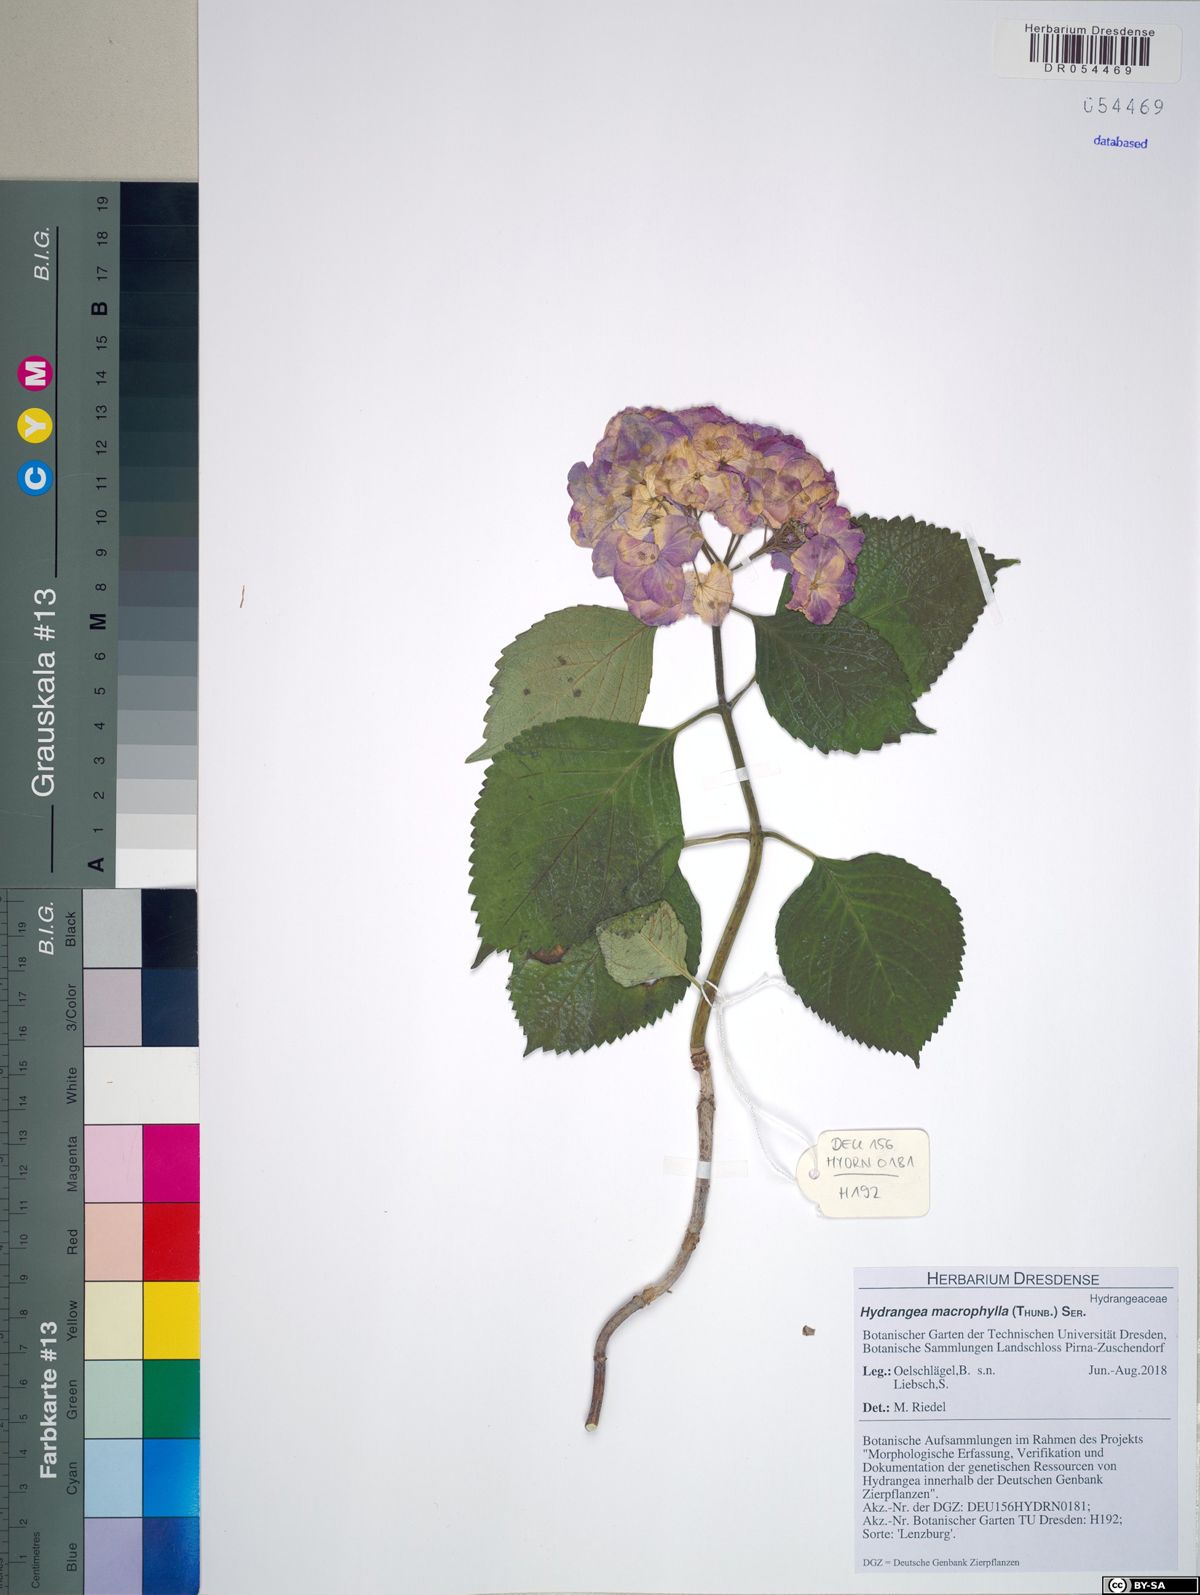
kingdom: Plantae
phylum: Tracheophyta
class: Magnoliopsida
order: Cornales
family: Hydrangeaceae
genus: Hydrangea
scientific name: Hydrangea macrophylla
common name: Hydrangea
